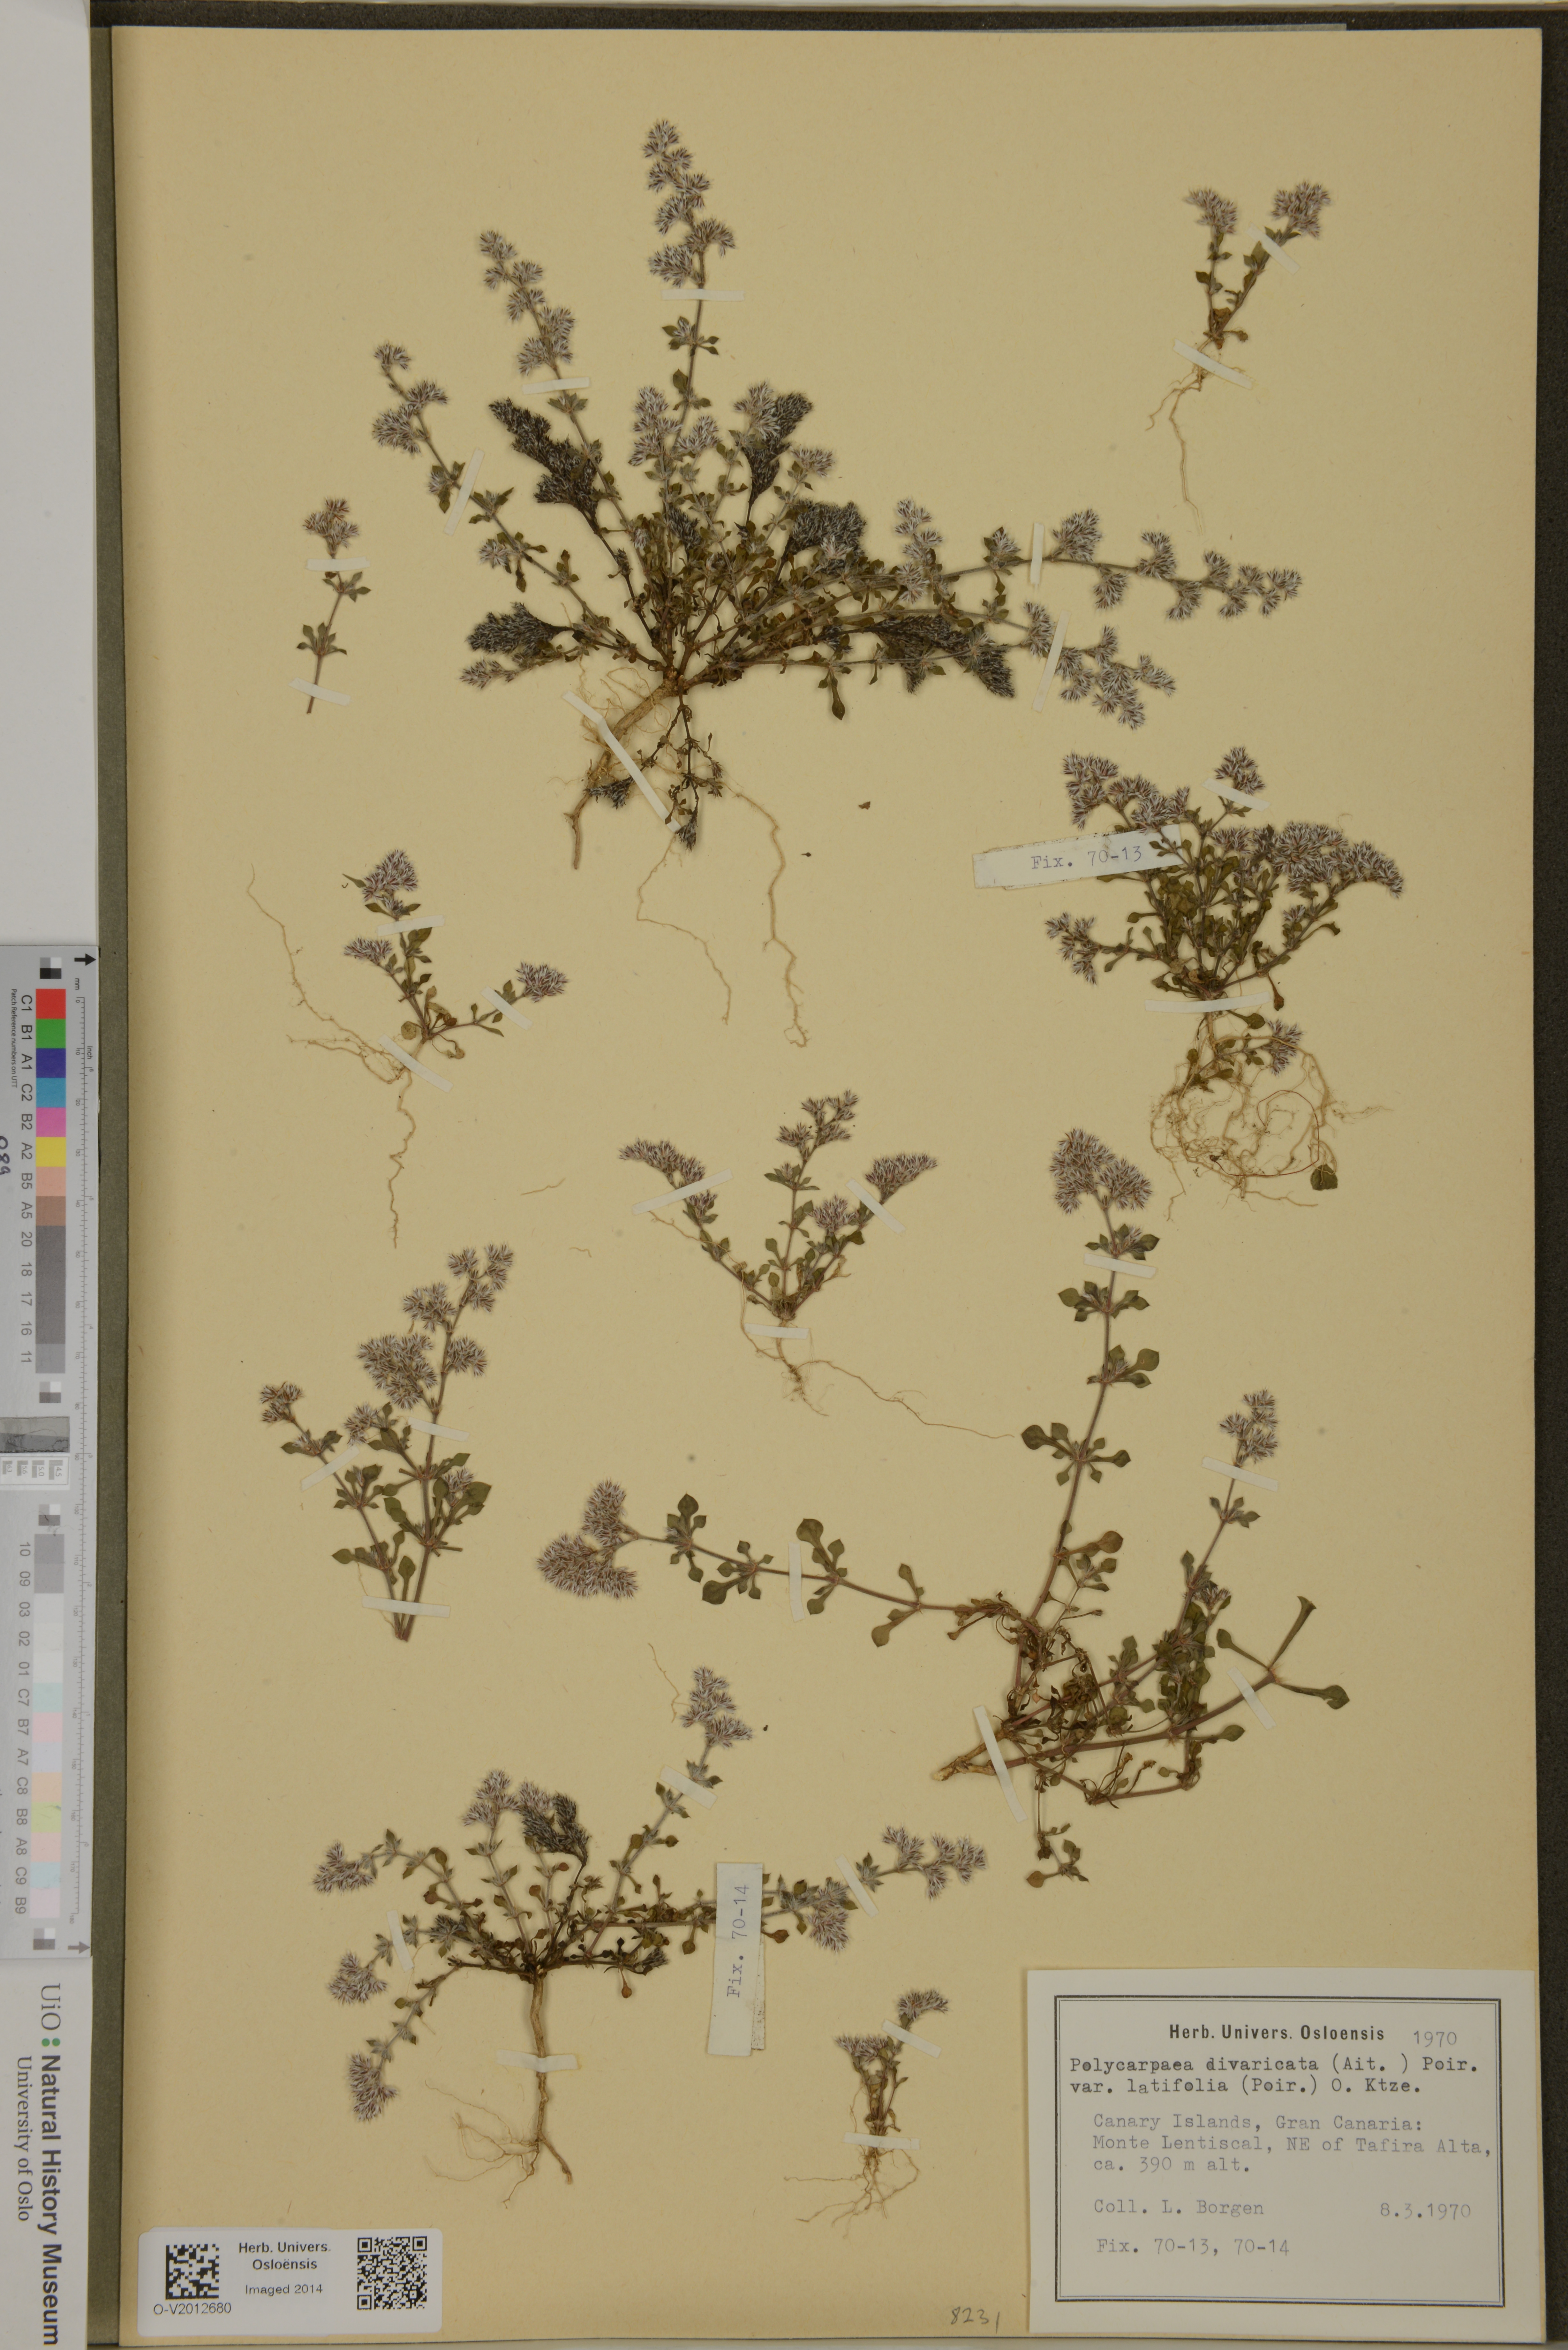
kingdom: Plantae
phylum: Tracheophyta
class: Magnoliopsida
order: Caryophyllales
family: Caryophyllaceae
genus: Polycarpaea
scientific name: Polycarpaea divaricata
